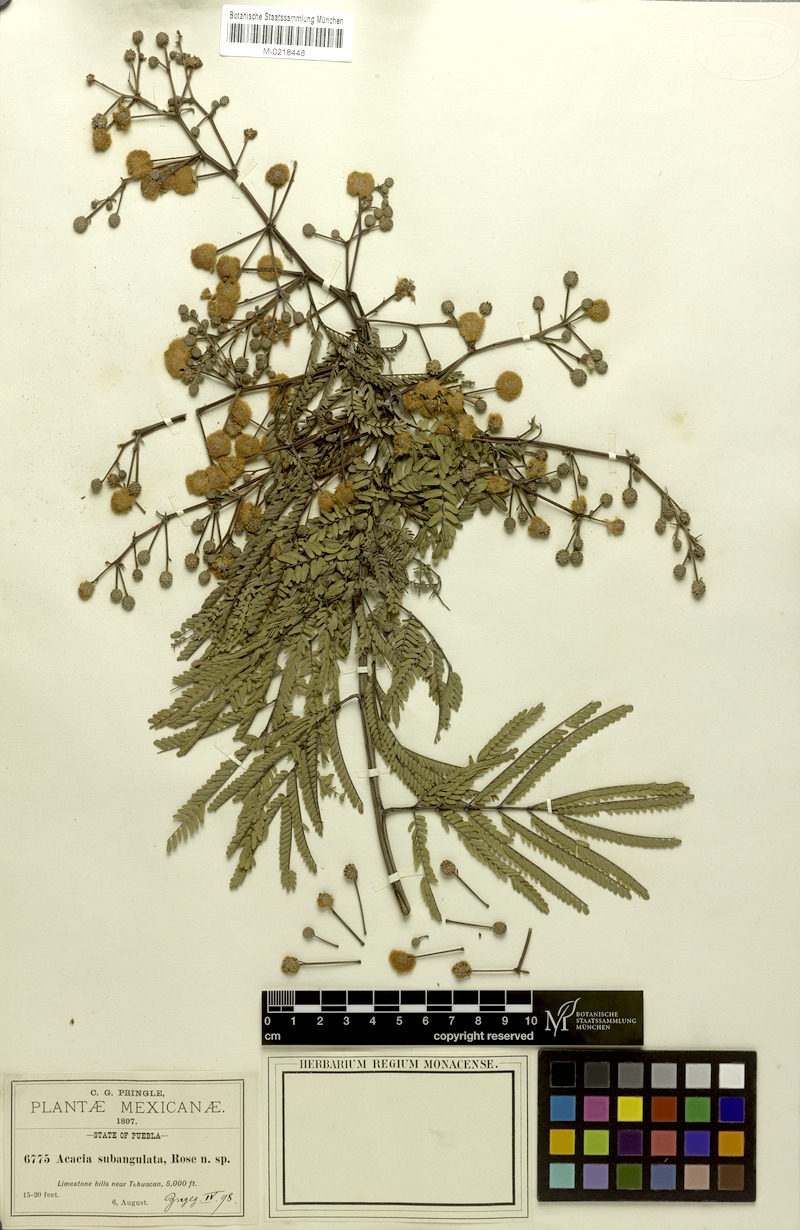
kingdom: Plantae
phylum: Tracheophyta
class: Magnoliopsida
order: Fabales
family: Fabaceae
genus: Senegalia
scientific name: Senegalia subangulata
